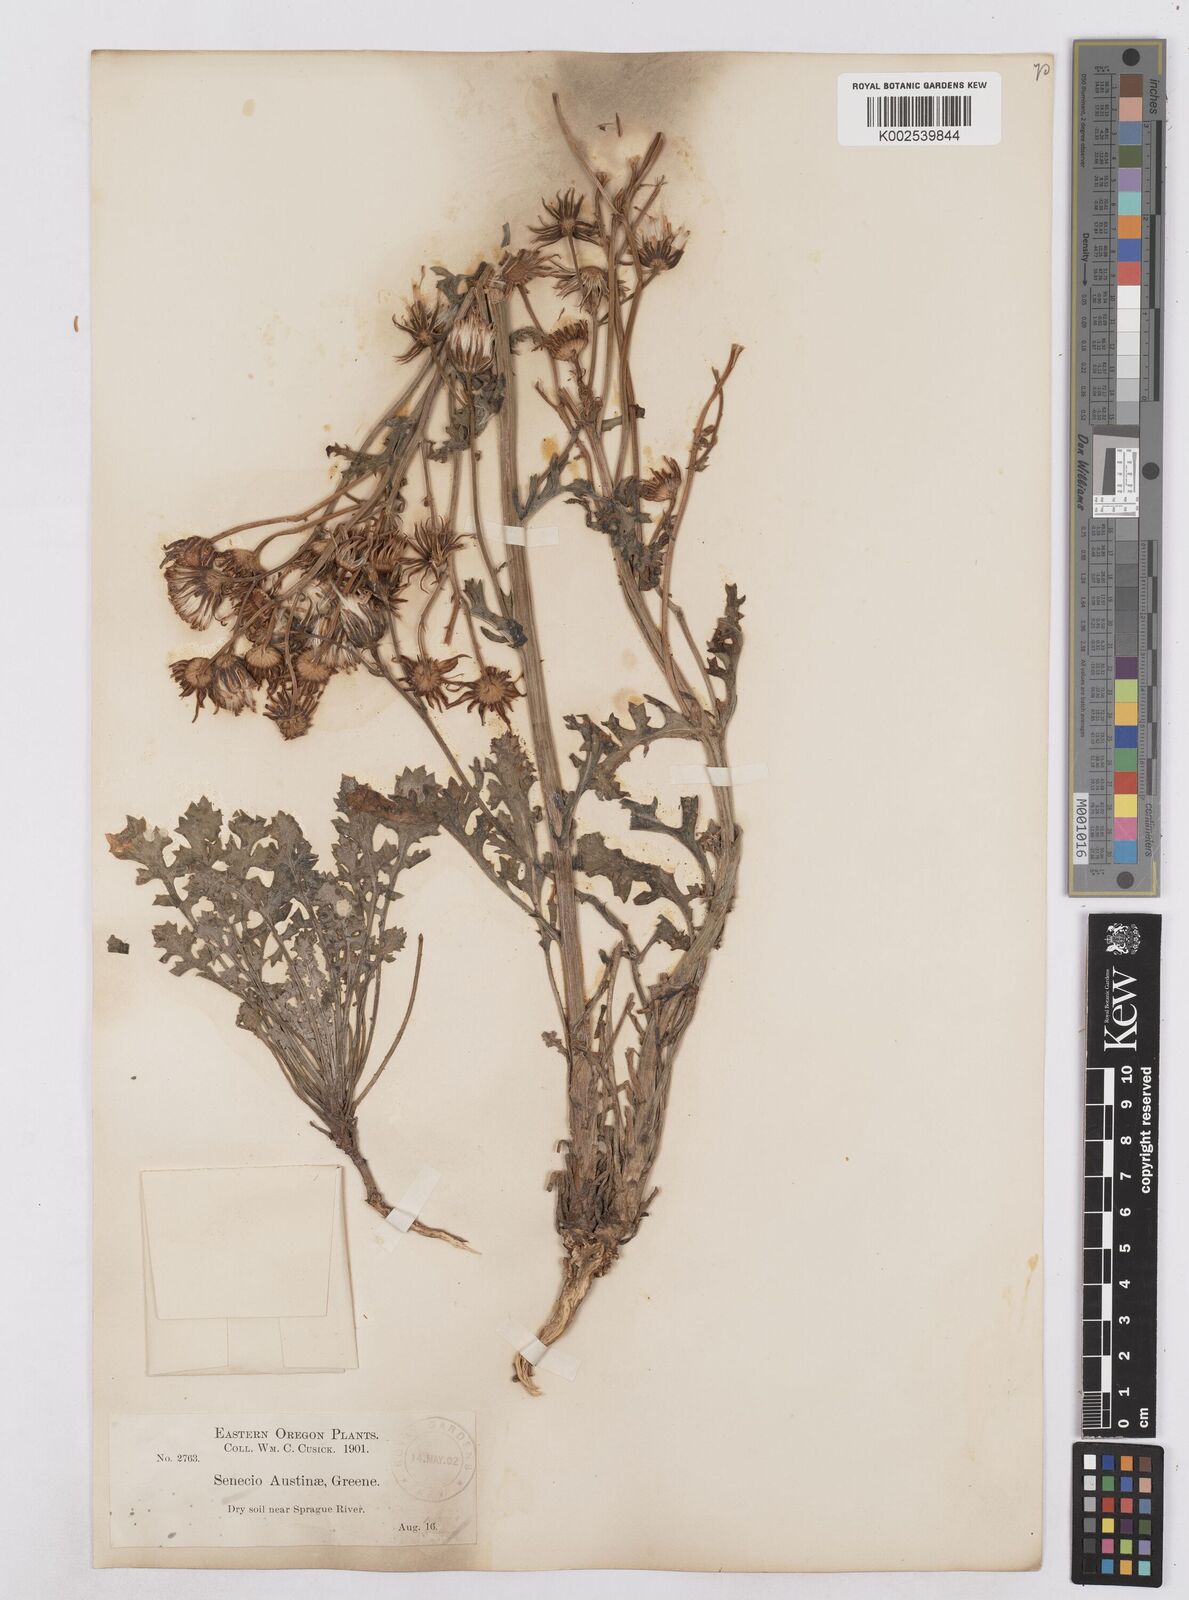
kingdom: Plantae
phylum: Tracheophyta
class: Magnoliopsida
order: Asterales
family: Asteraceae
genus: Packera
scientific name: Packera eurycephala
